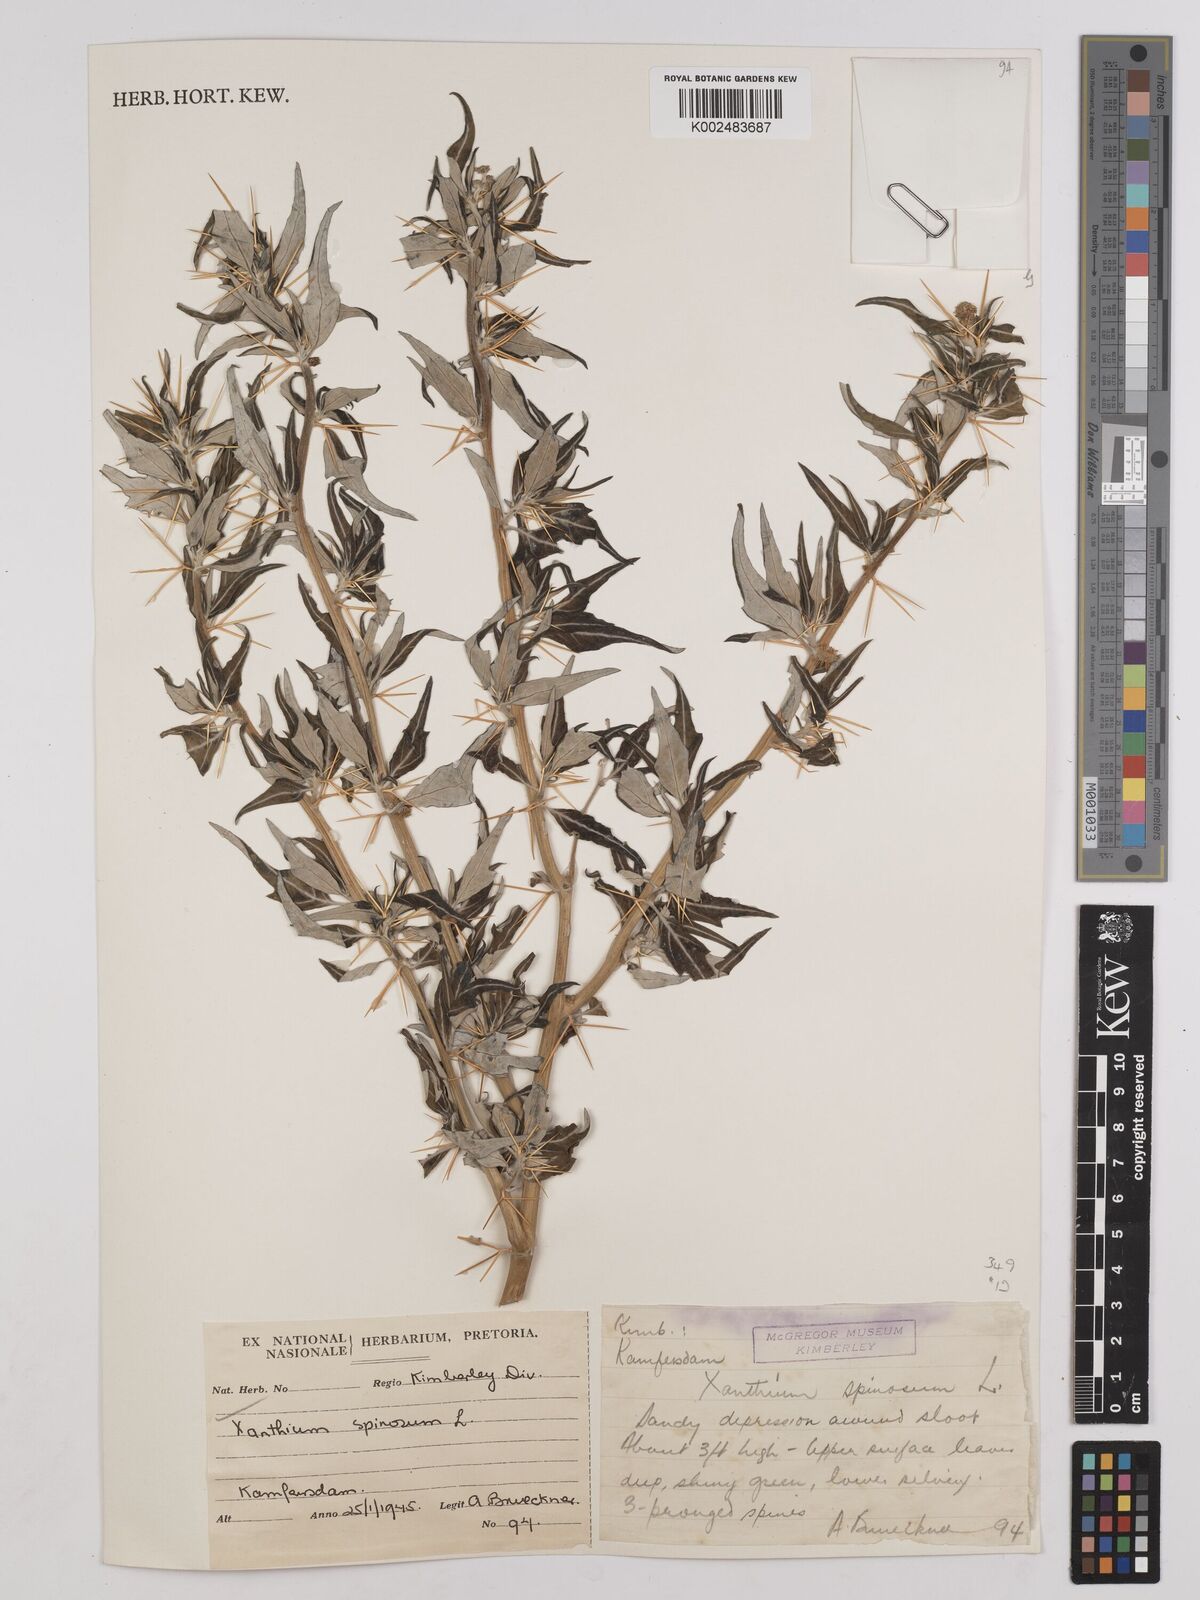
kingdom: Plantae
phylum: Tracheophyta
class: Magnoliopsida
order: Asterales
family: Asteraceae
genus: Xanthium
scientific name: Xanthium spinosum
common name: Spiny cocklebur
